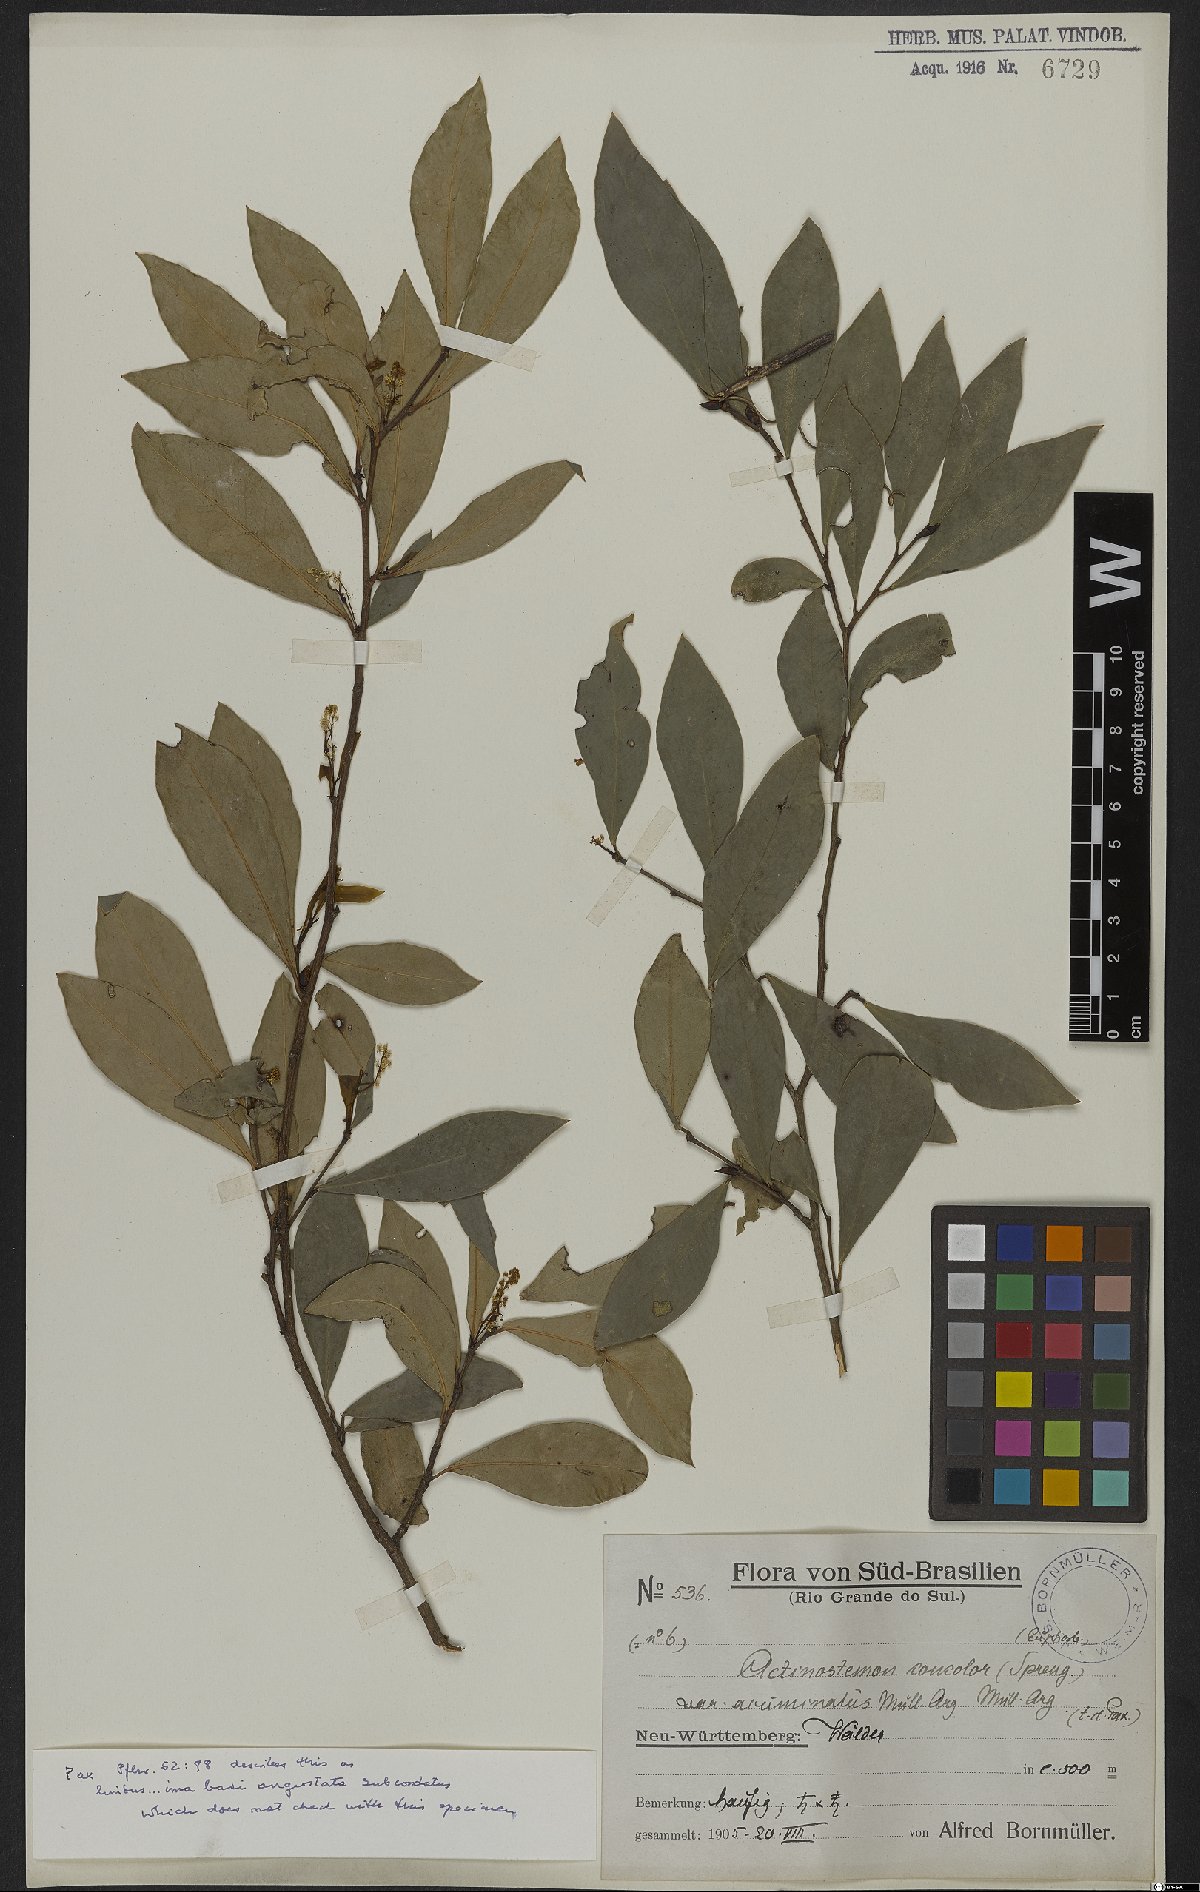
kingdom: Plantae
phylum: Tracheophyta
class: Magnoliopsida
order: Malpighiales
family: Euphorbiaceae
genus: Actinostemon
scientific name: Actinostemon concolor
